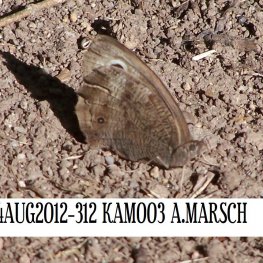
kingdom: Animalia
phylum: Arthropoda
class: Insecta
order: Lepidoptera
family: Nymphalidae
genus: Cercyonis
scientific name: Cercyonis pegala
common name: Common Wood-Nymph
